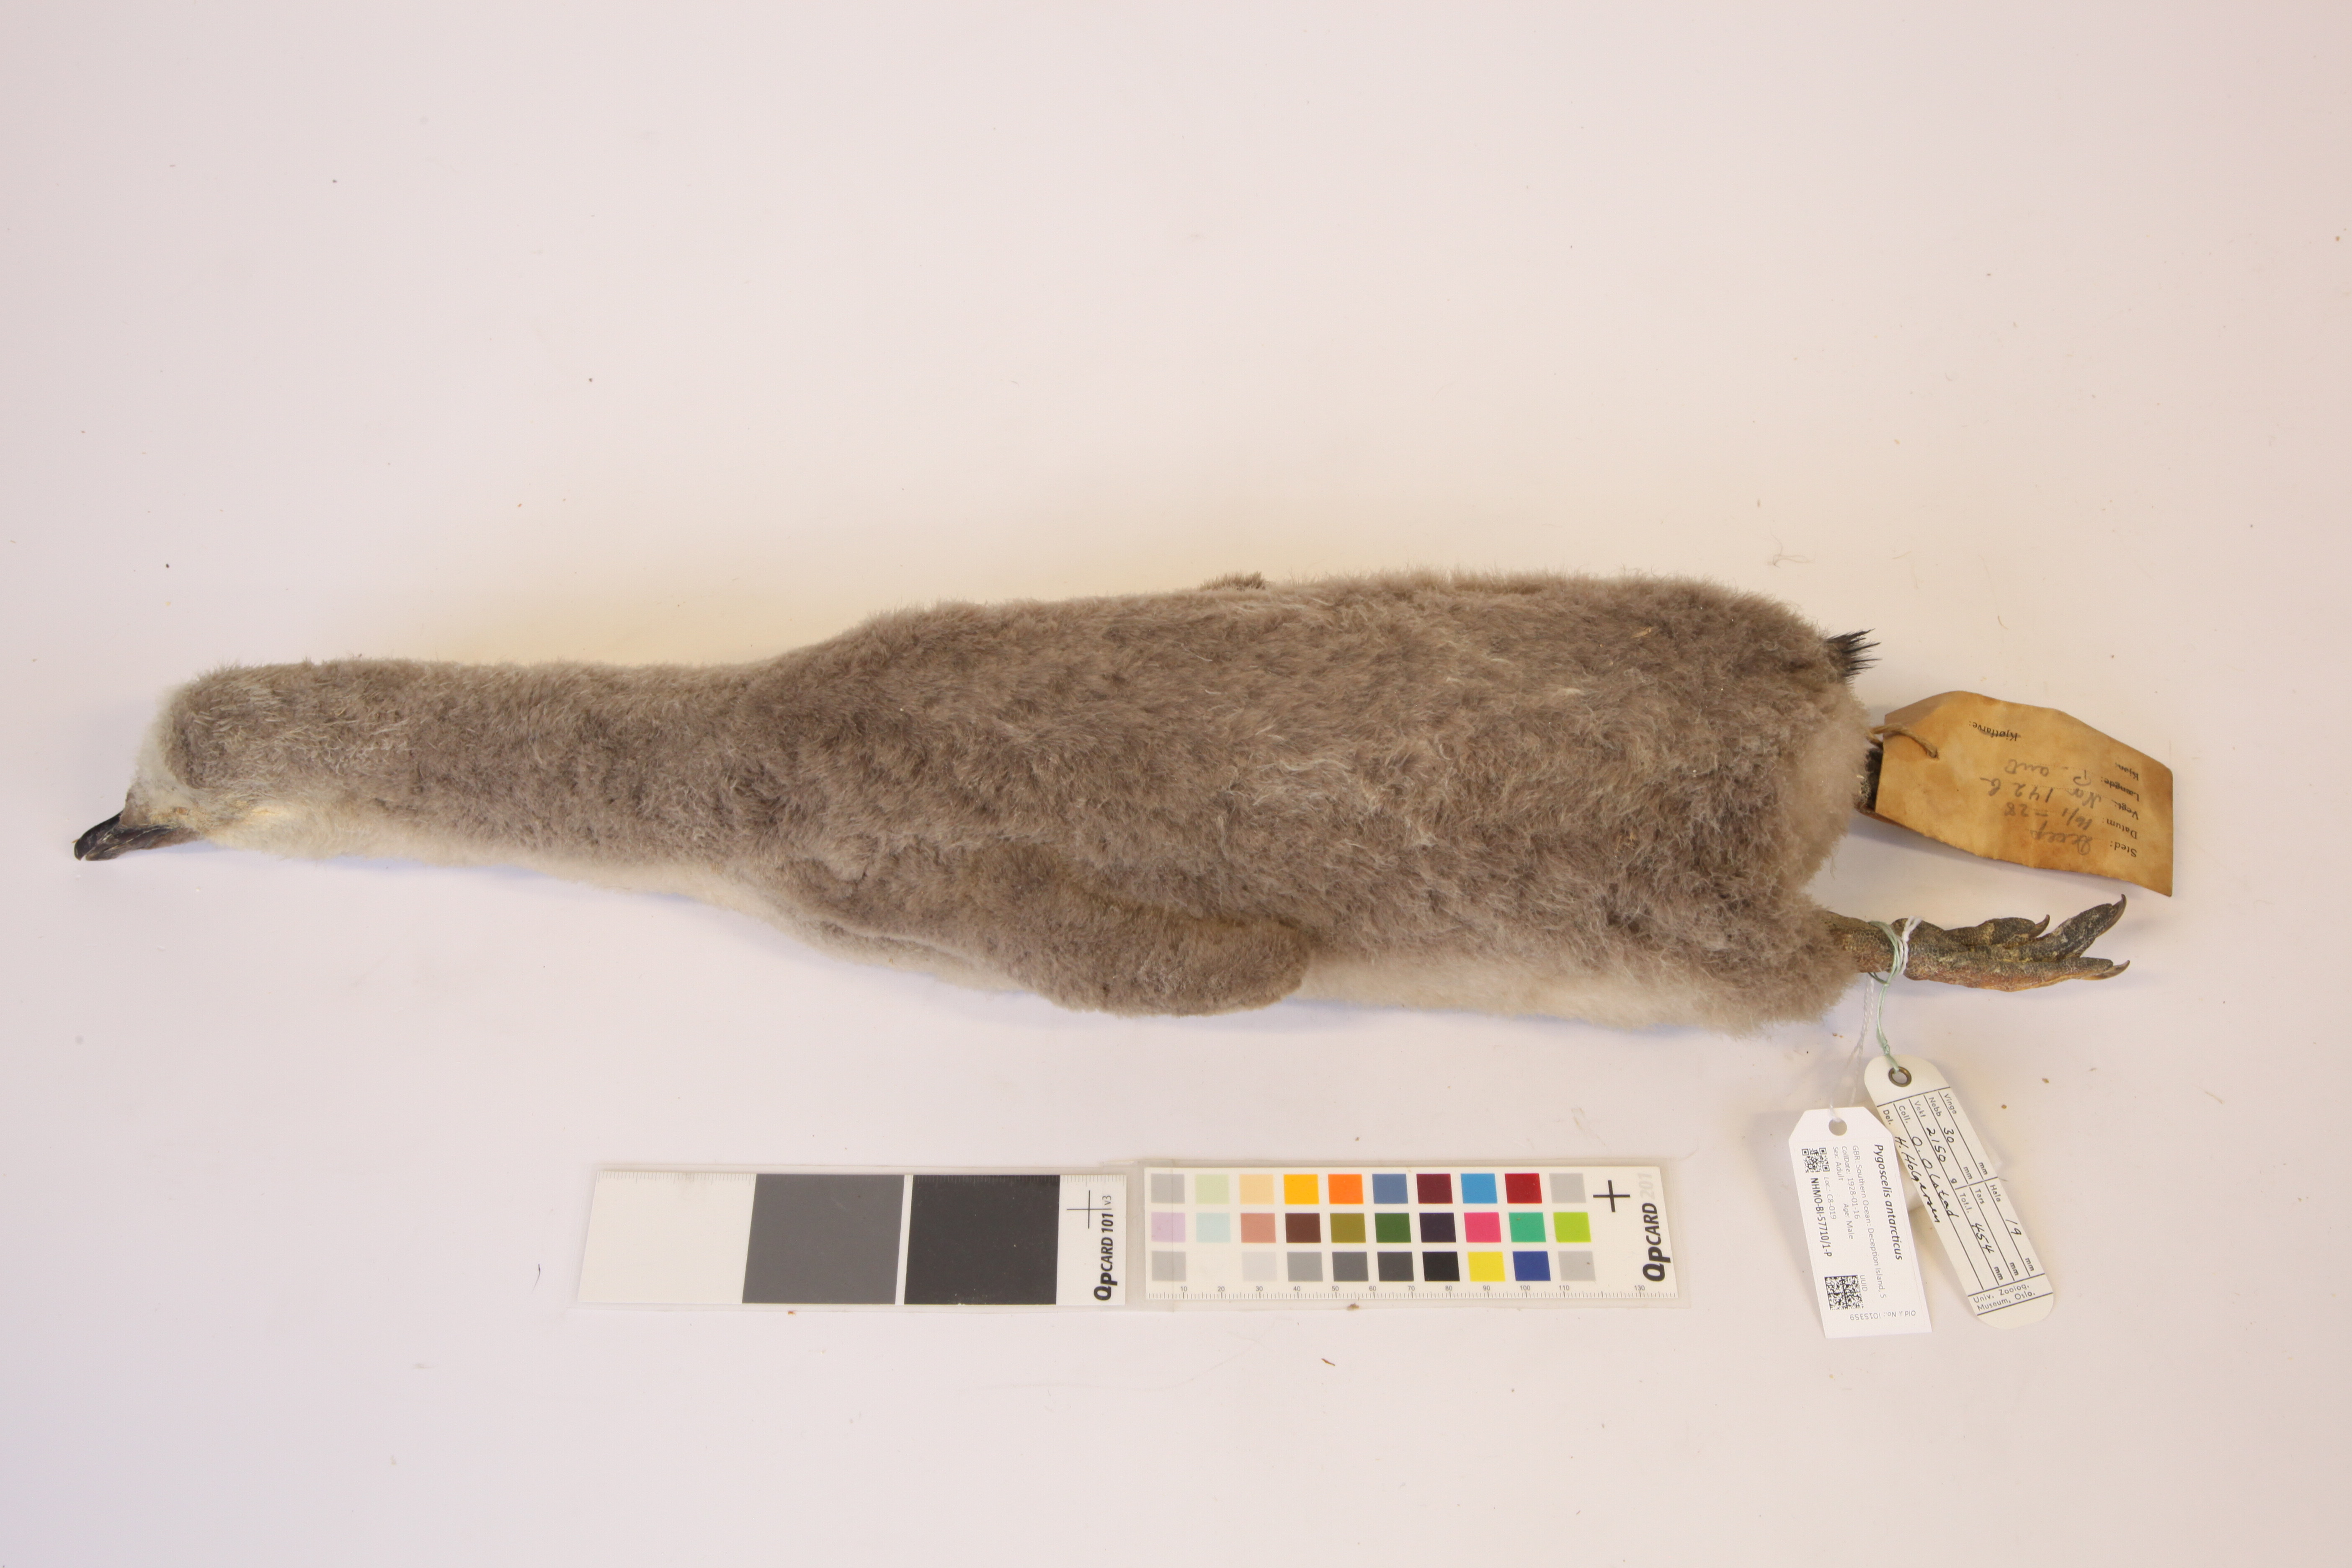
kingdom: Animalia
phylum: Chordata
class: Aves
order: Sphenisciformes
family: Spheniscidae
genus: Pygoscelis
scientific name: Pygoscelis antarcticus
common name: Chinstrap penguin
